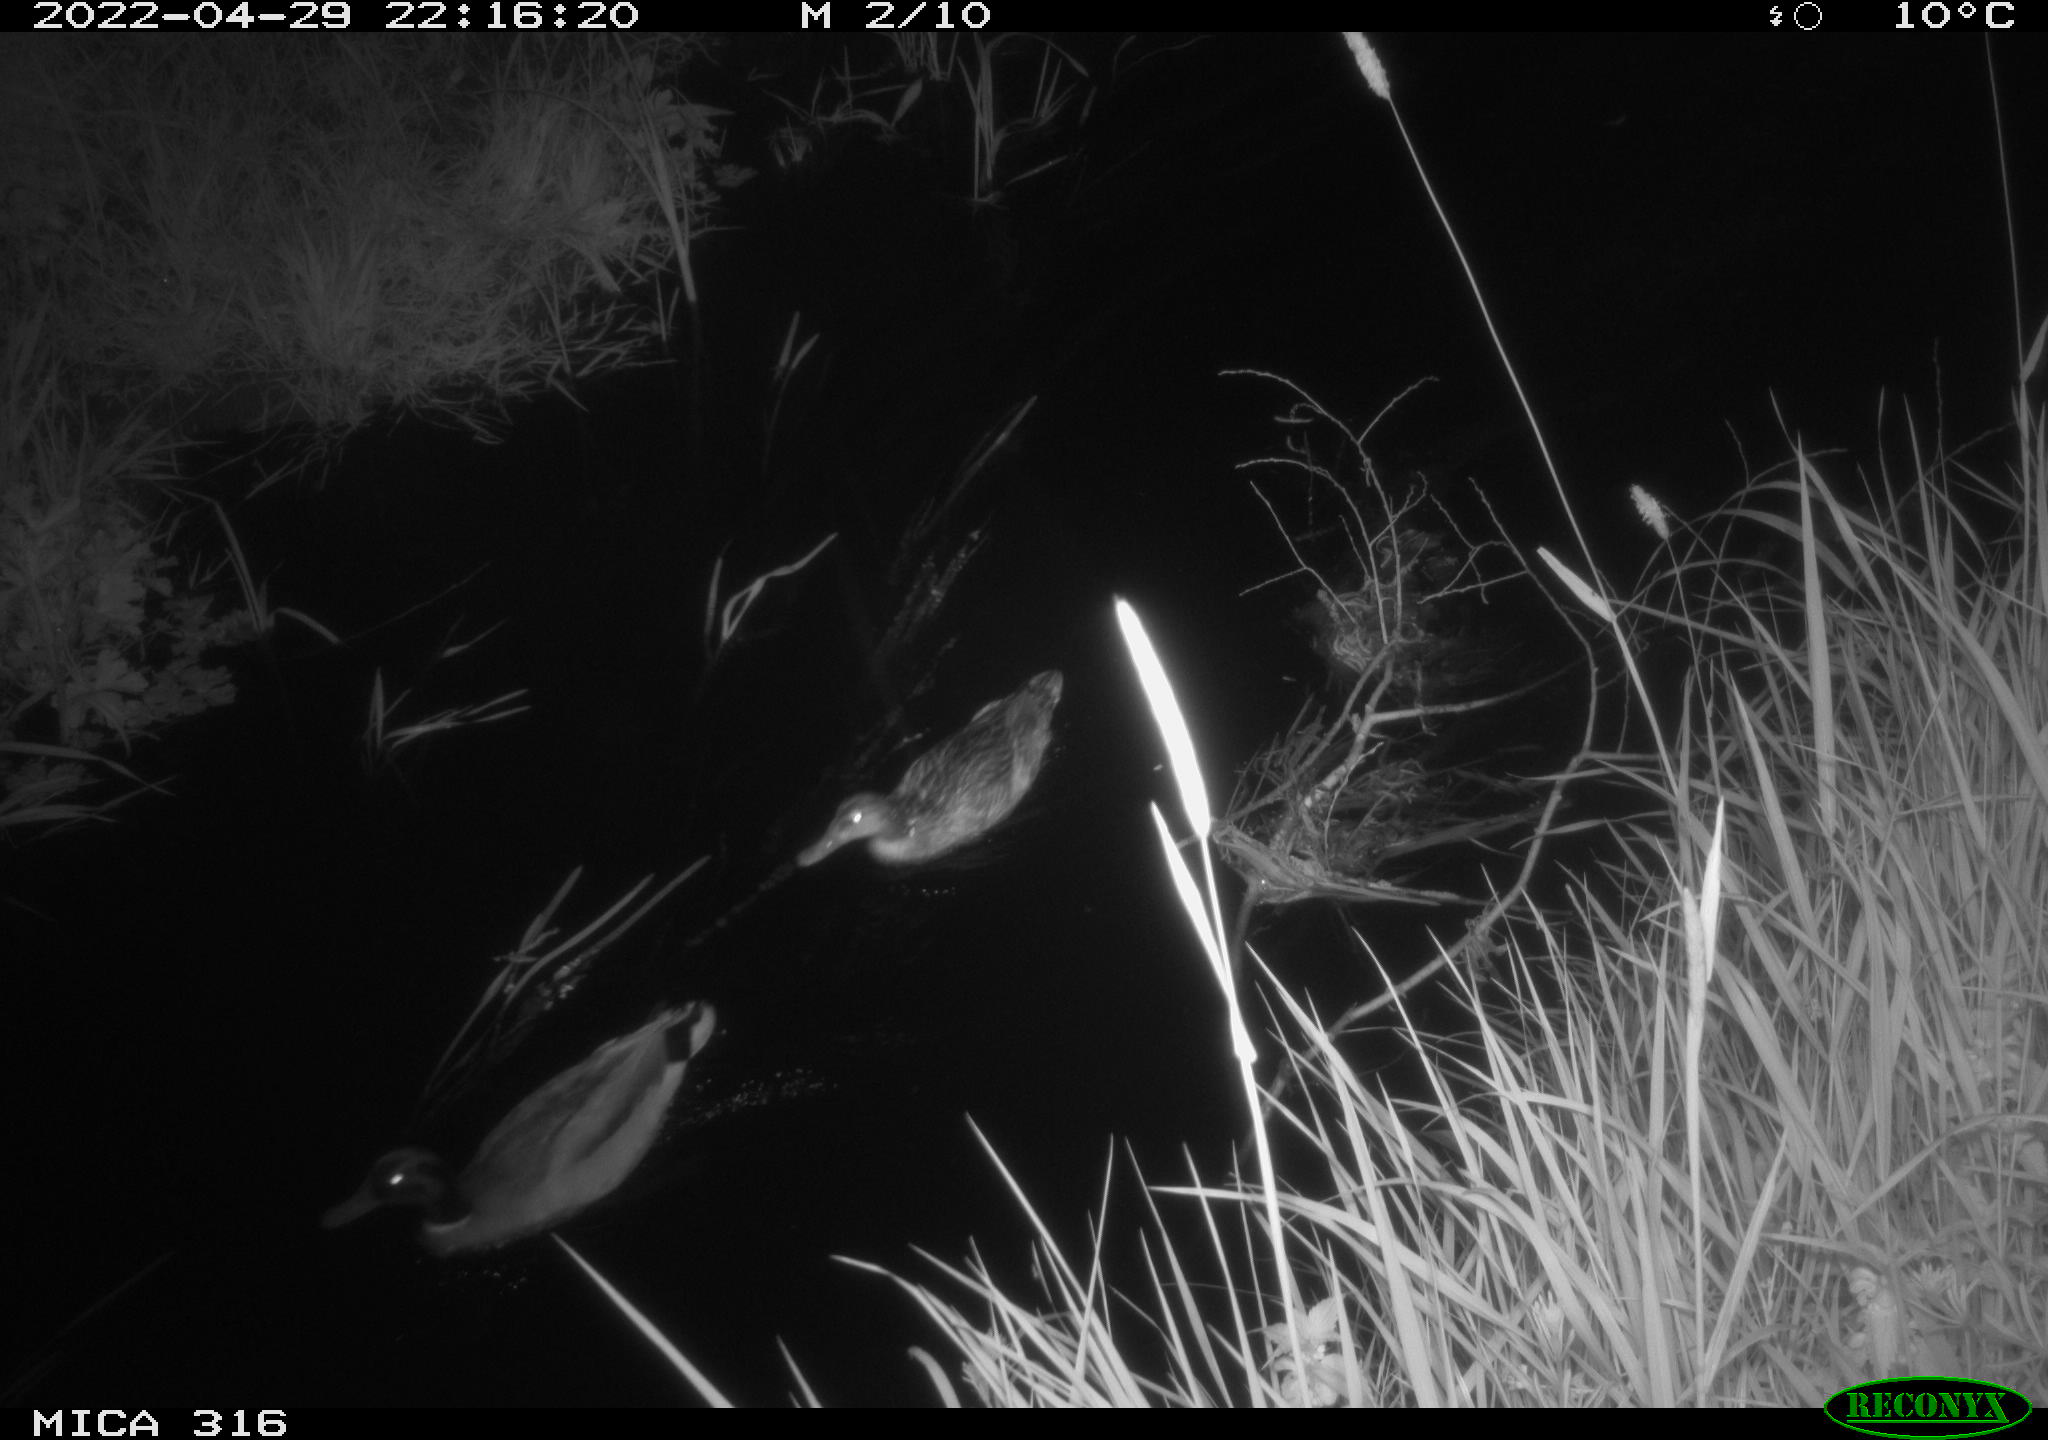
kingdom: Animalia
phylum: Chordata
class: Aves
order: Anseriformes
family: Anatidae
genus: Anas
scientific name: Anas platyrhynchos
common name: Mallard
